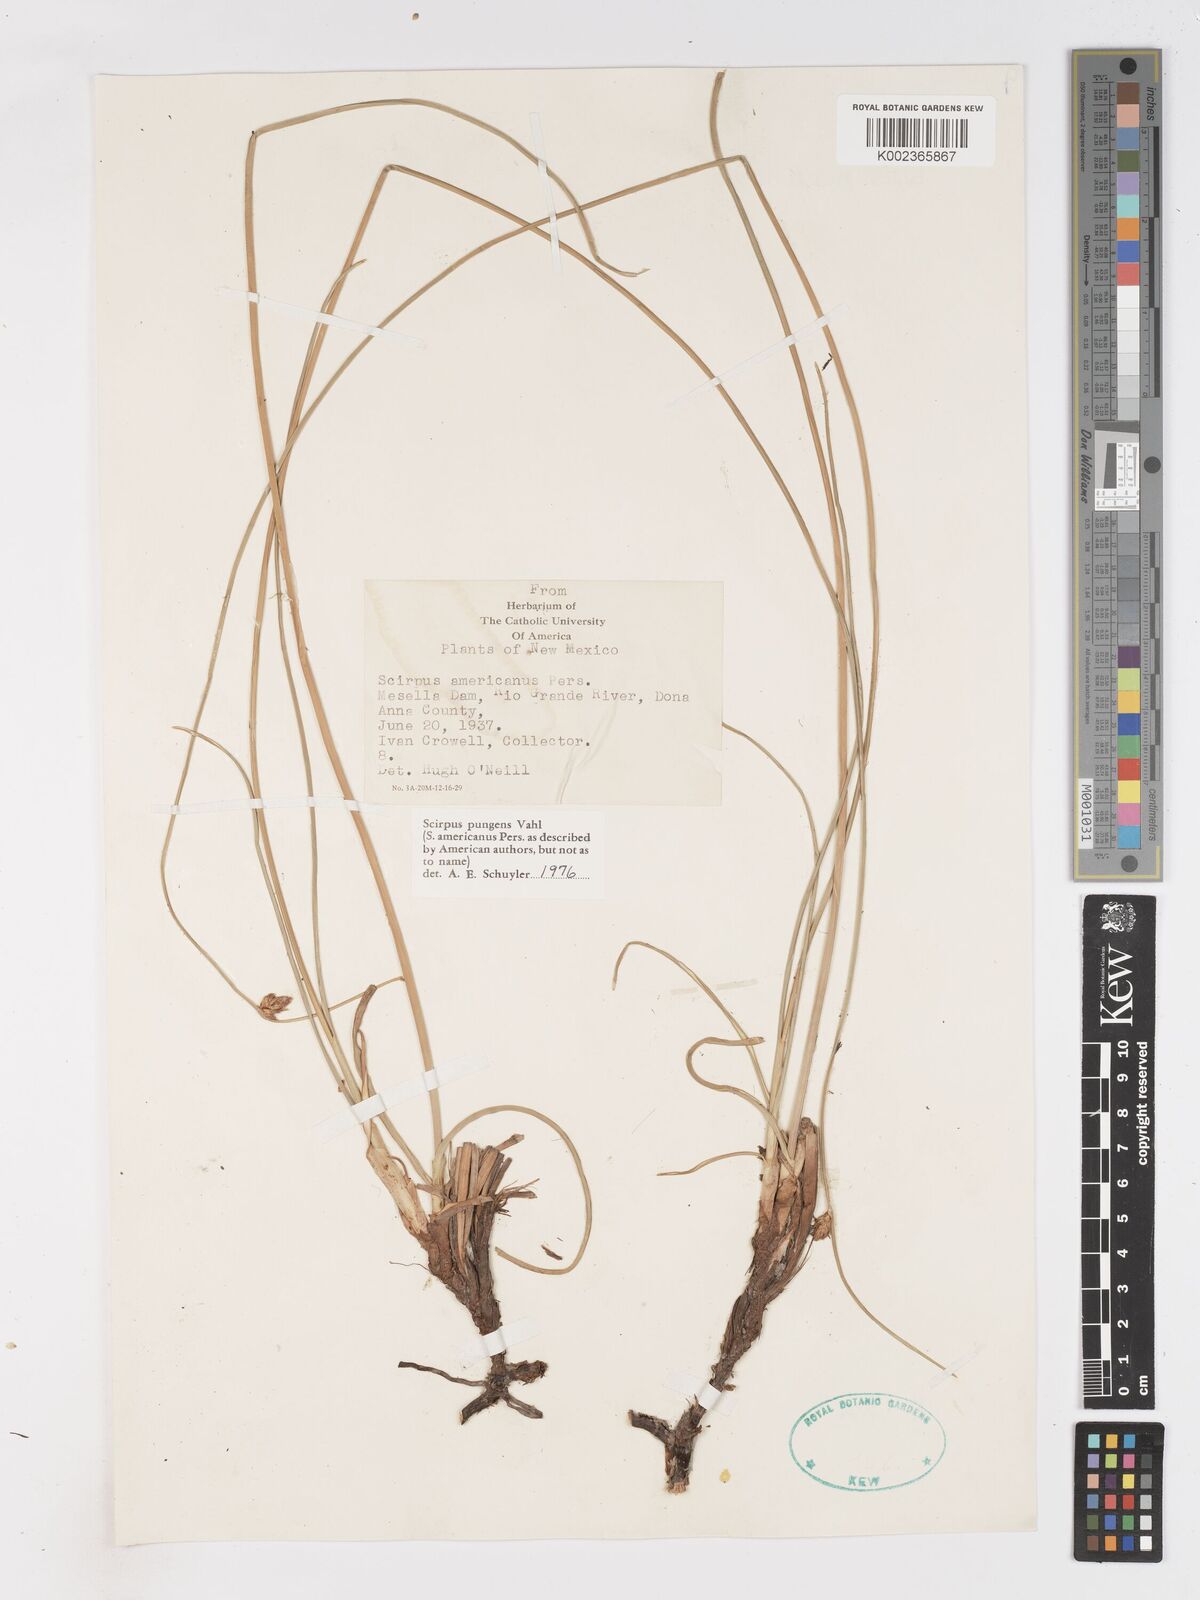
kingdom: Plantae
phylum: Tracheophyta
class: Liliopsida
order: Poales
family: Cyperaceae
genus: Schoenoplectus
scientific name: Schoenoplectus pungens
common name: Sharp club-rush
